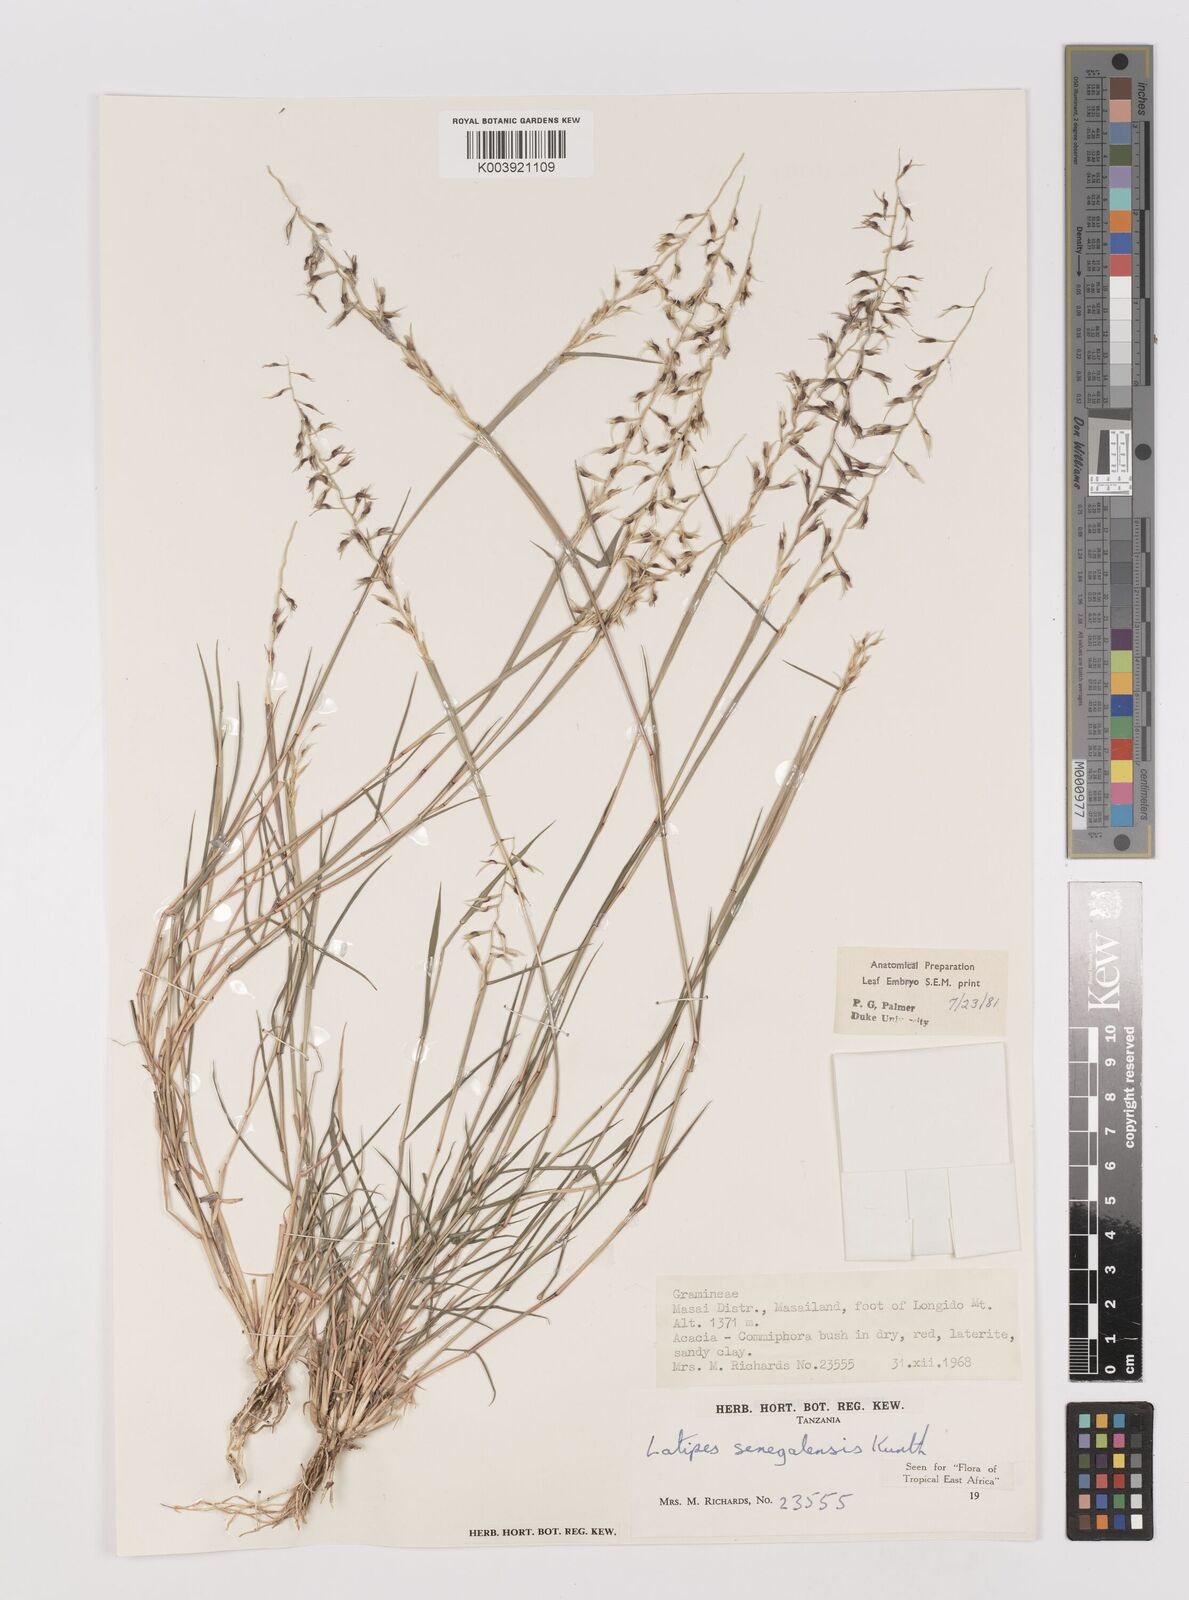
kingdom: Plantae
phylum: Tracheophyta
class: Liliopsida
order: Poales
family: Poaceae
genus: Leptothrium
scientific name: Leptothrium senegalense
